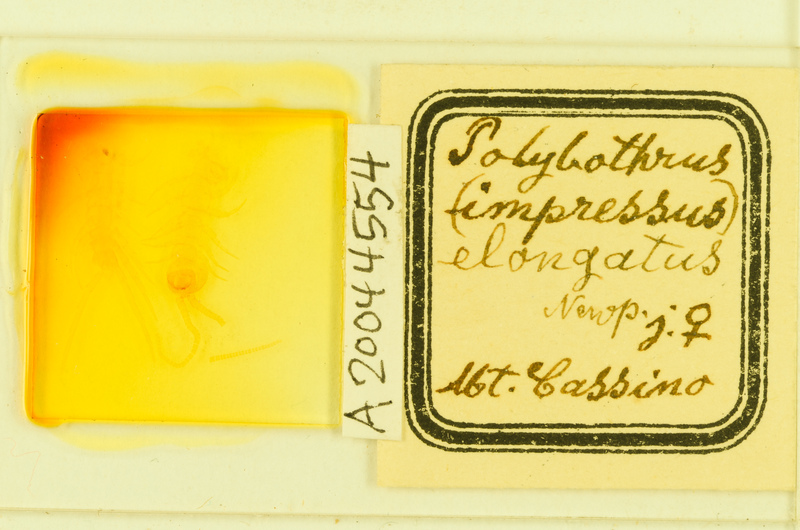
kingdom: Animalia
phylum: Arthropoda
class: Chilopoda
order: Lithobiomorpha
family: Lithobiidae
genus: Polybothrus
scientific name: Polybothrus
